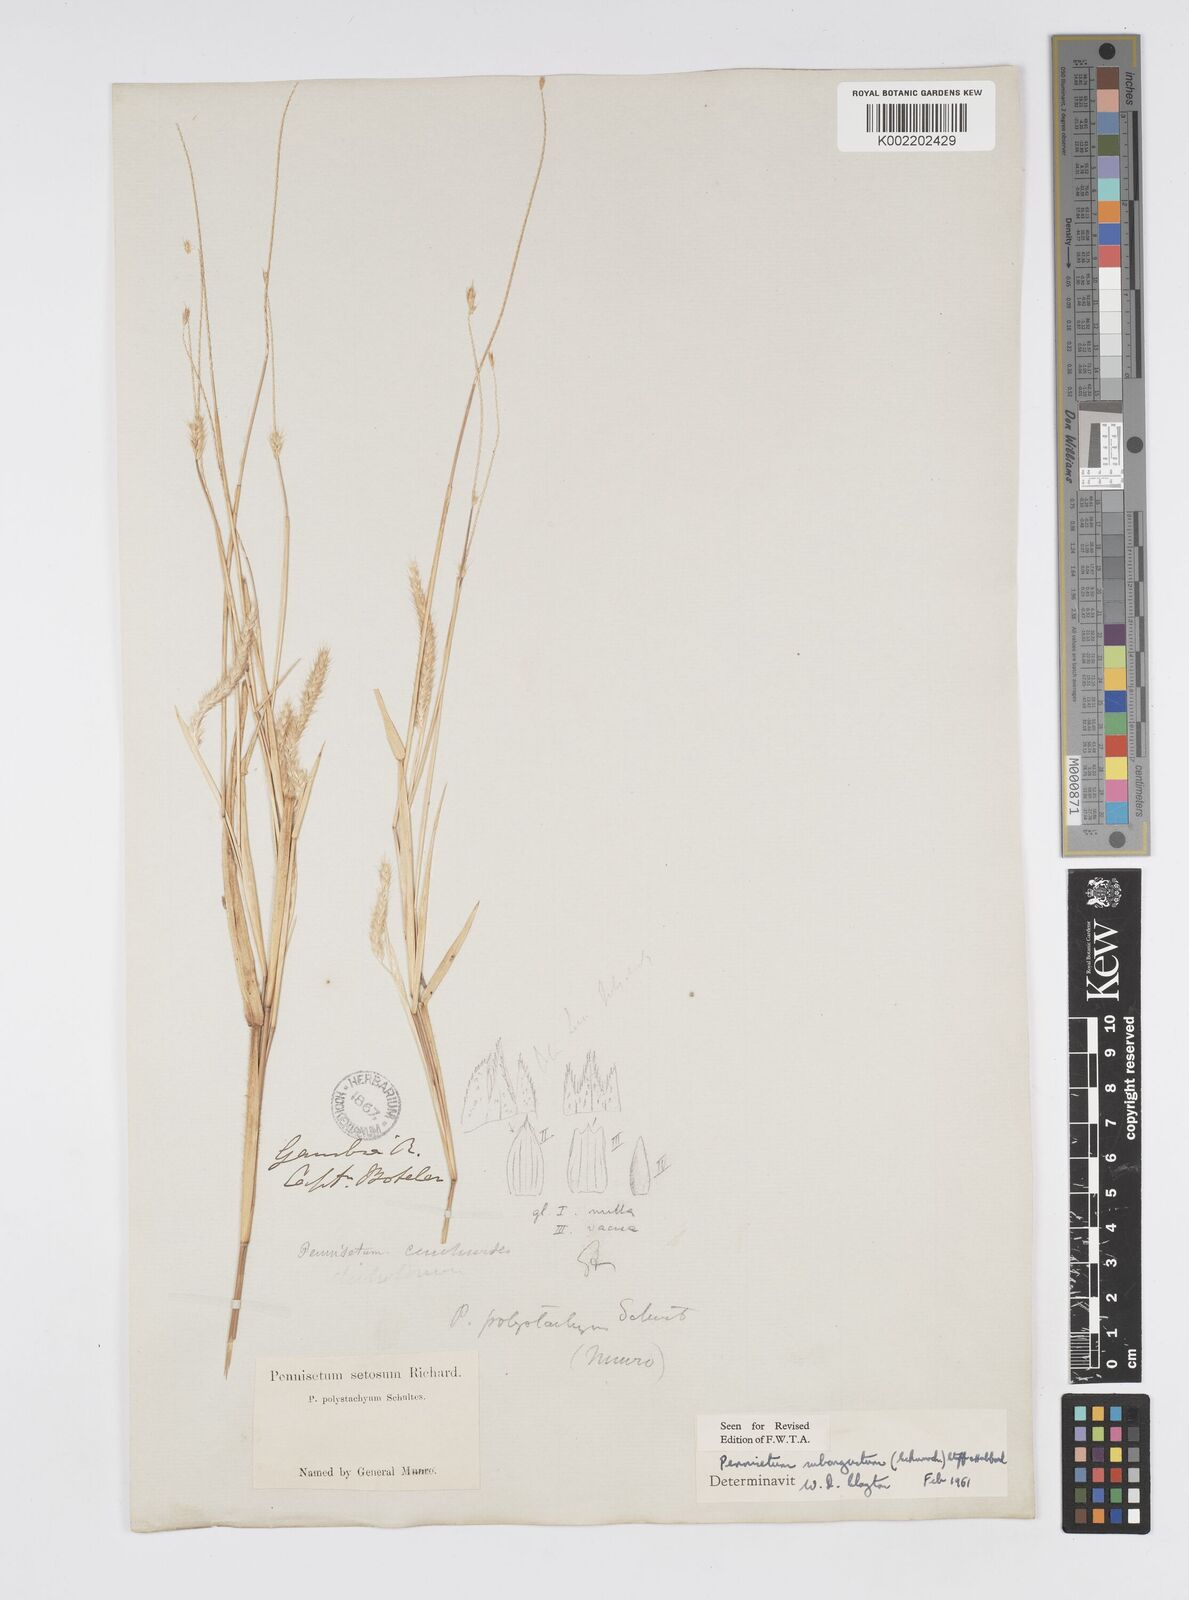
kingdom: Plantae
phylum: Tracheophyta
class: Liliopsida
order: Poales
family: Poaceae
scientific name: Poaceae
